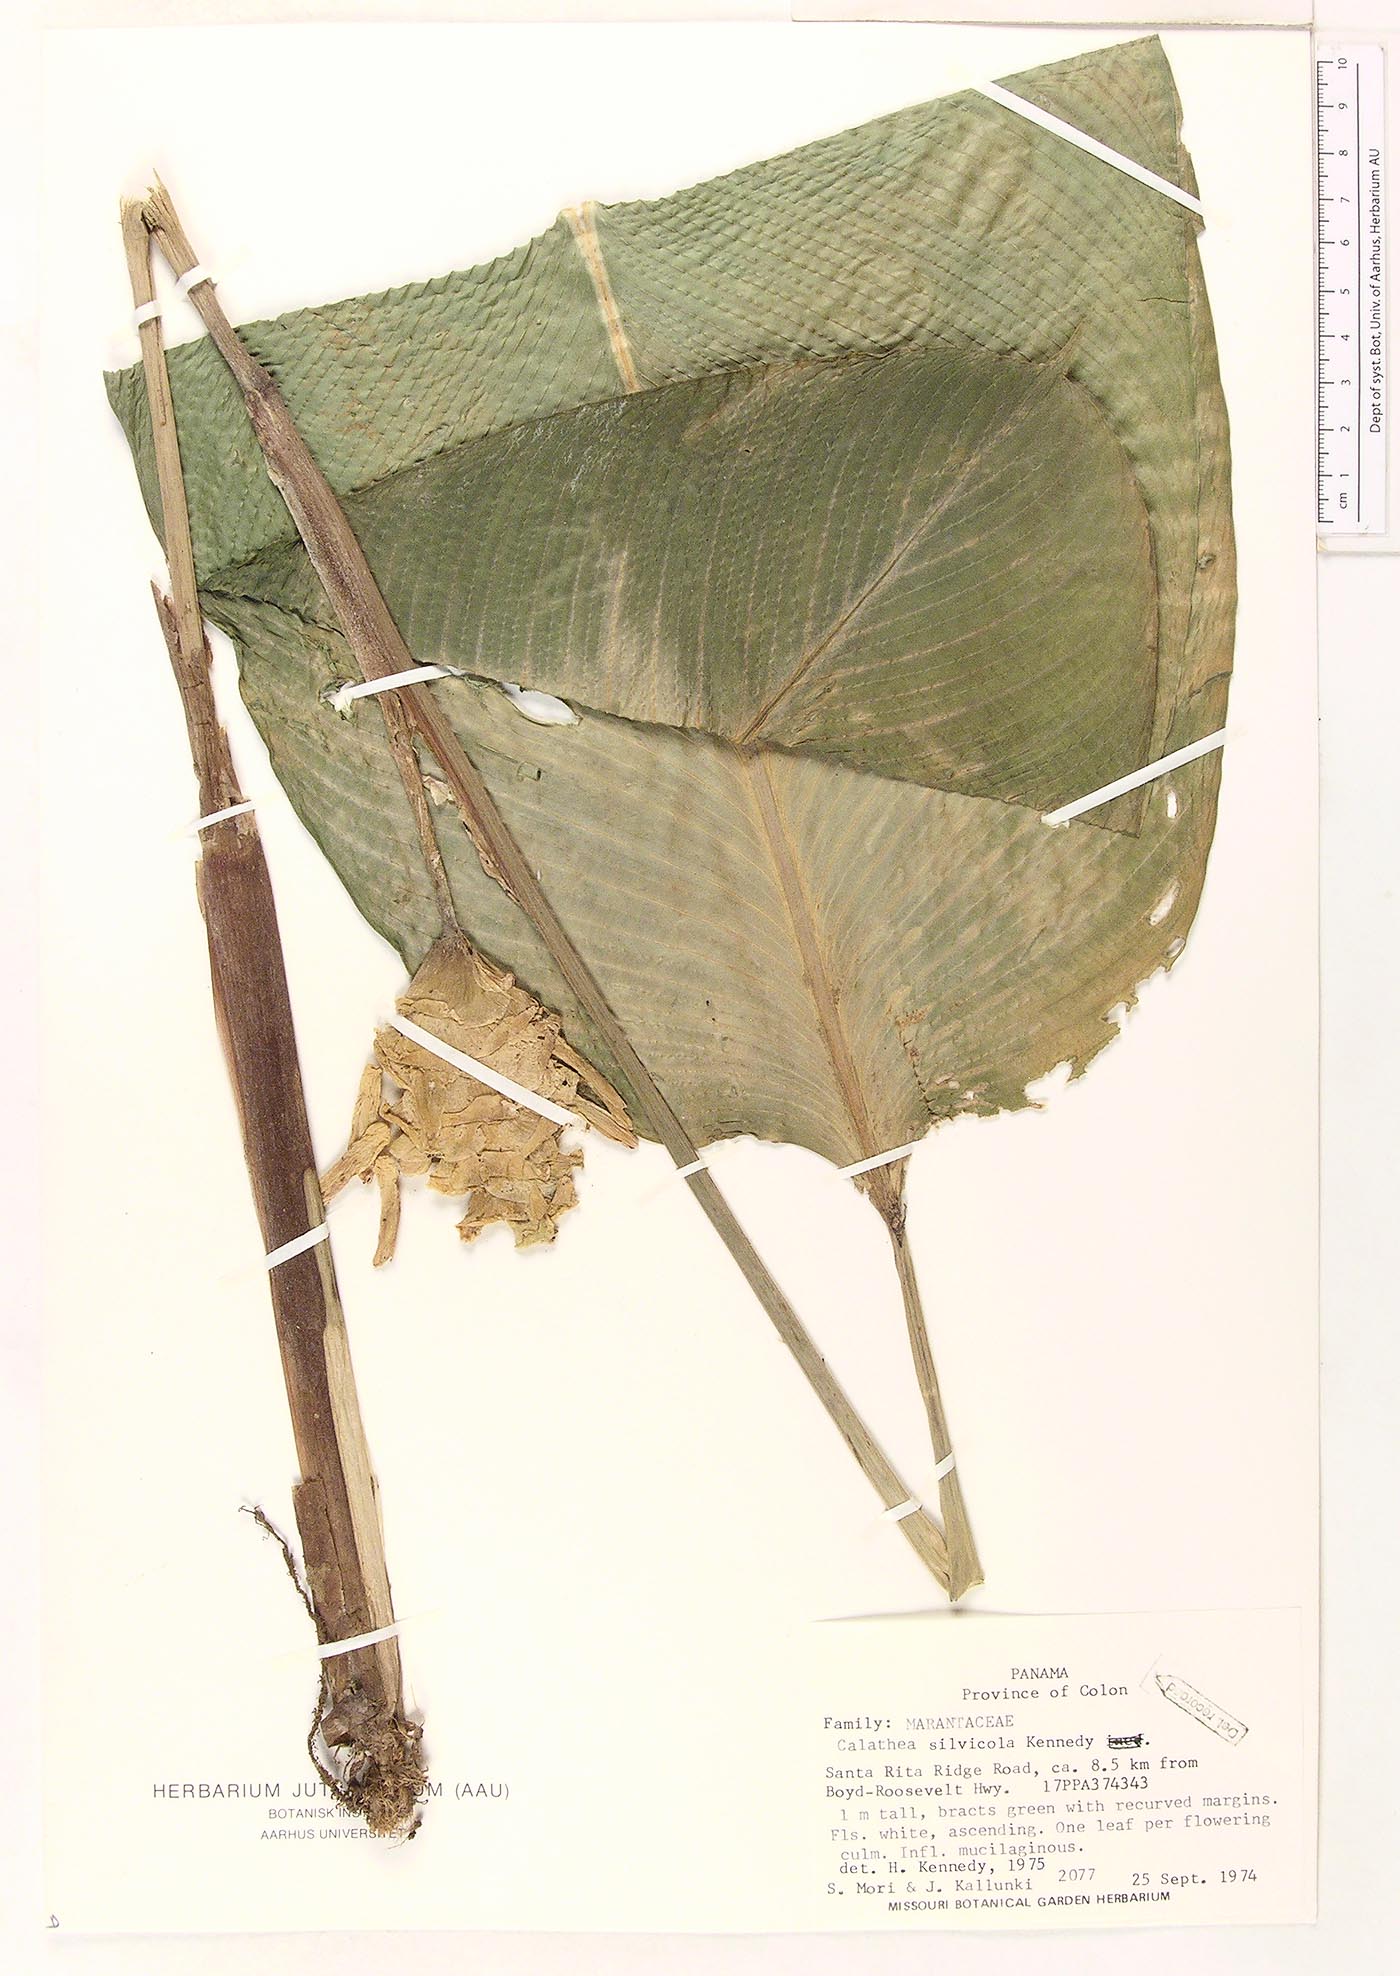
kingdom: Plantae
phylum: Tracheophyta
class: Liliopsida
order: Zingiberales
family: Marantaceae
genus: Goeppertia
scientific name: Goeppertia silvicola
